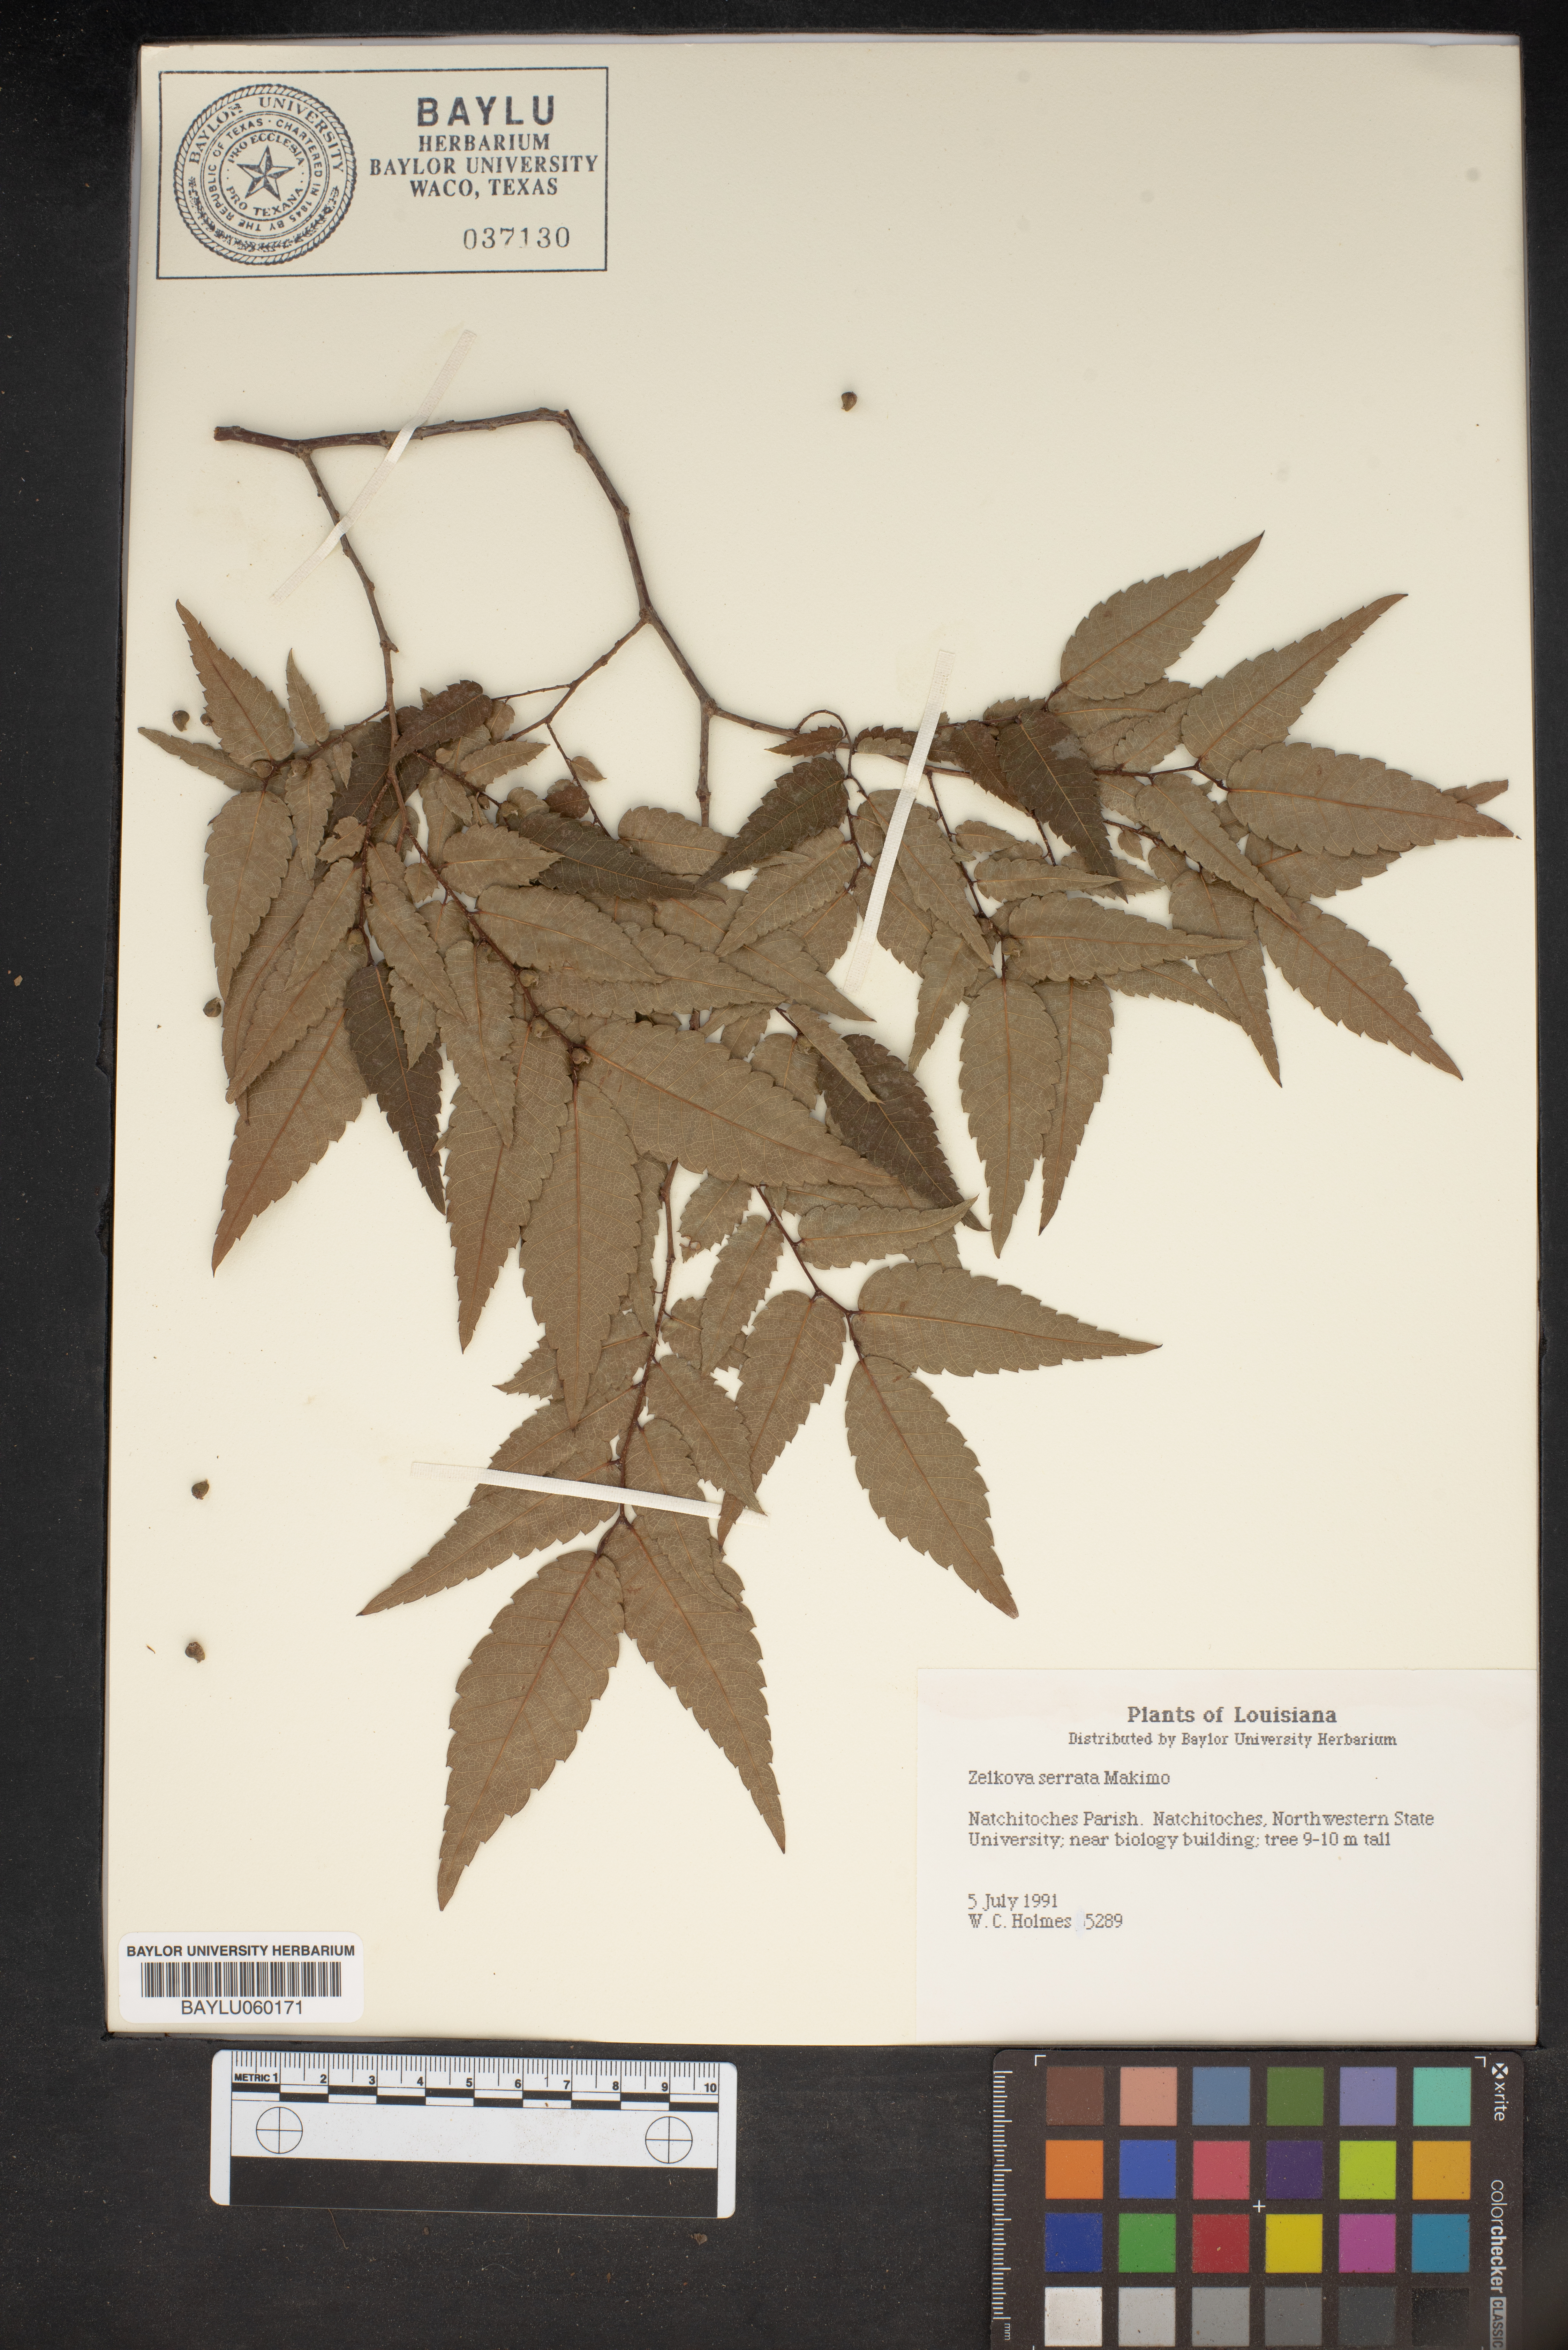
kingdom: Plantae
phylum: Tracheophyta
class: Magnoliopsida
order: Rosales
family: Ulmaceae
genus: Zelkova
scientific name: Zelkova serrata
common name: Japanese zelkova
